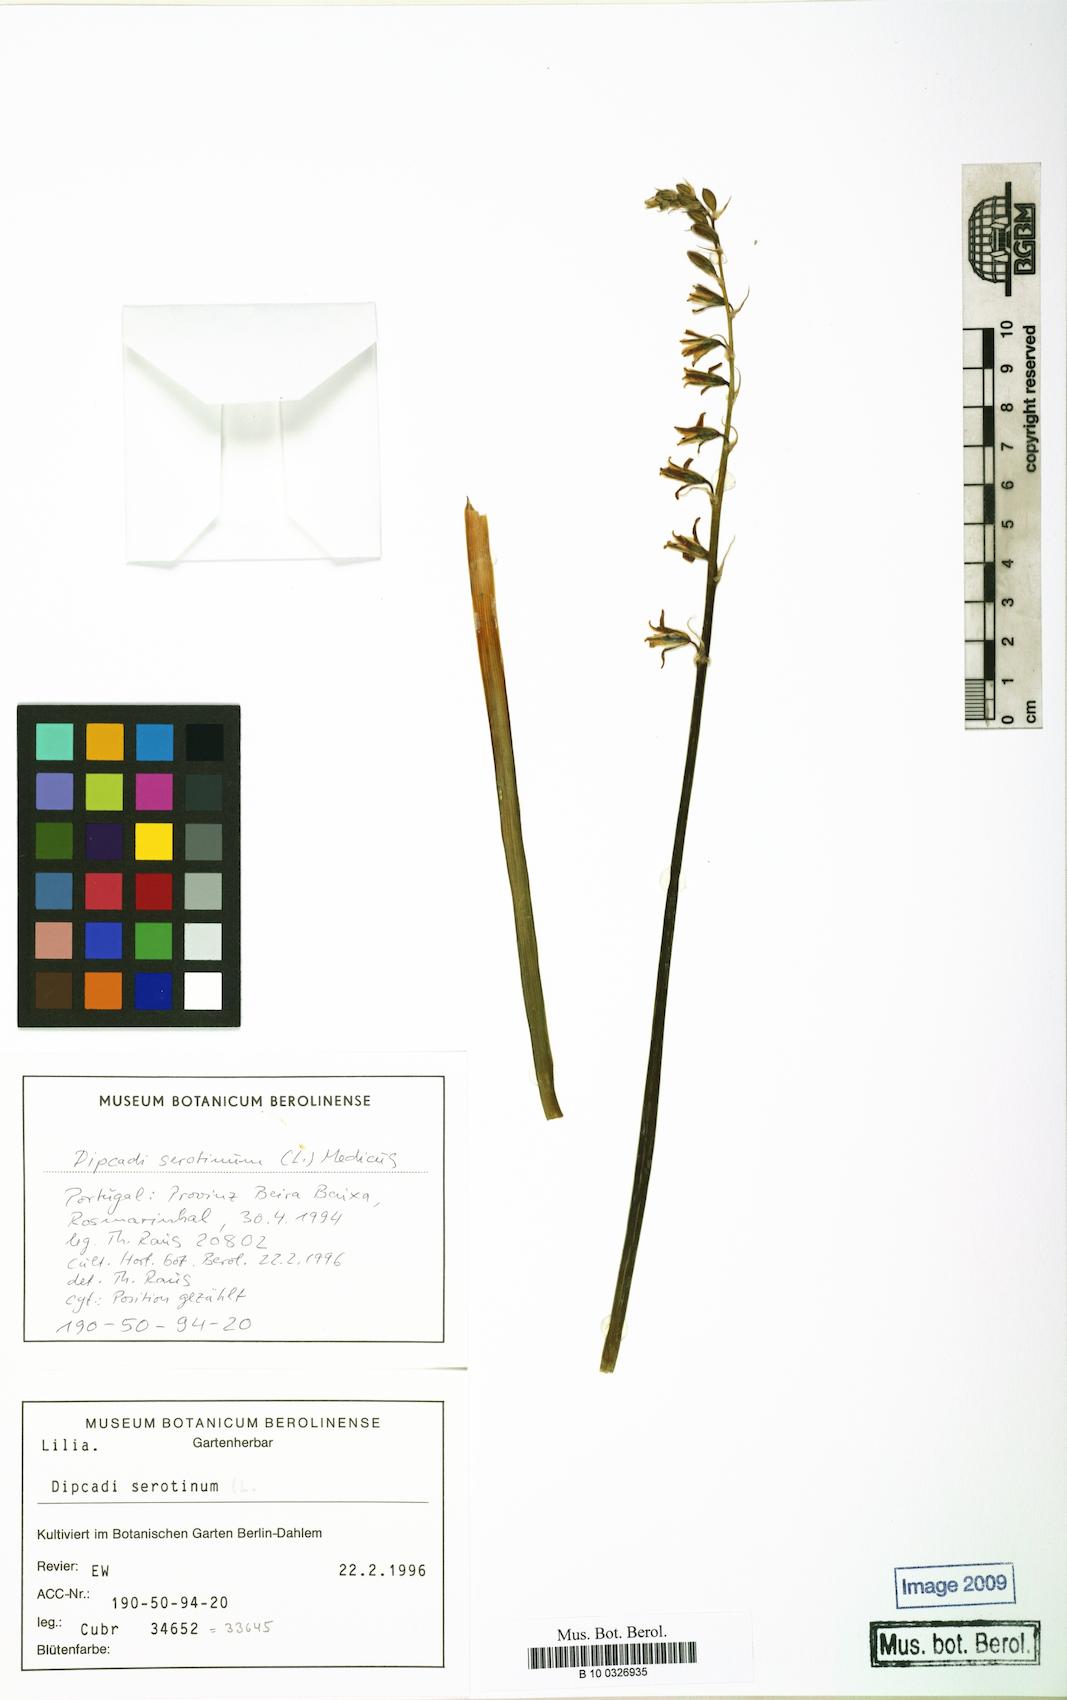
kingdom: Plantae
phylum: Tracheophyta
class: Liliopsida
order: Asparagales
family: Asparagaceae
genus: Dipcadi
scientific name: Dipcadi serotinum
